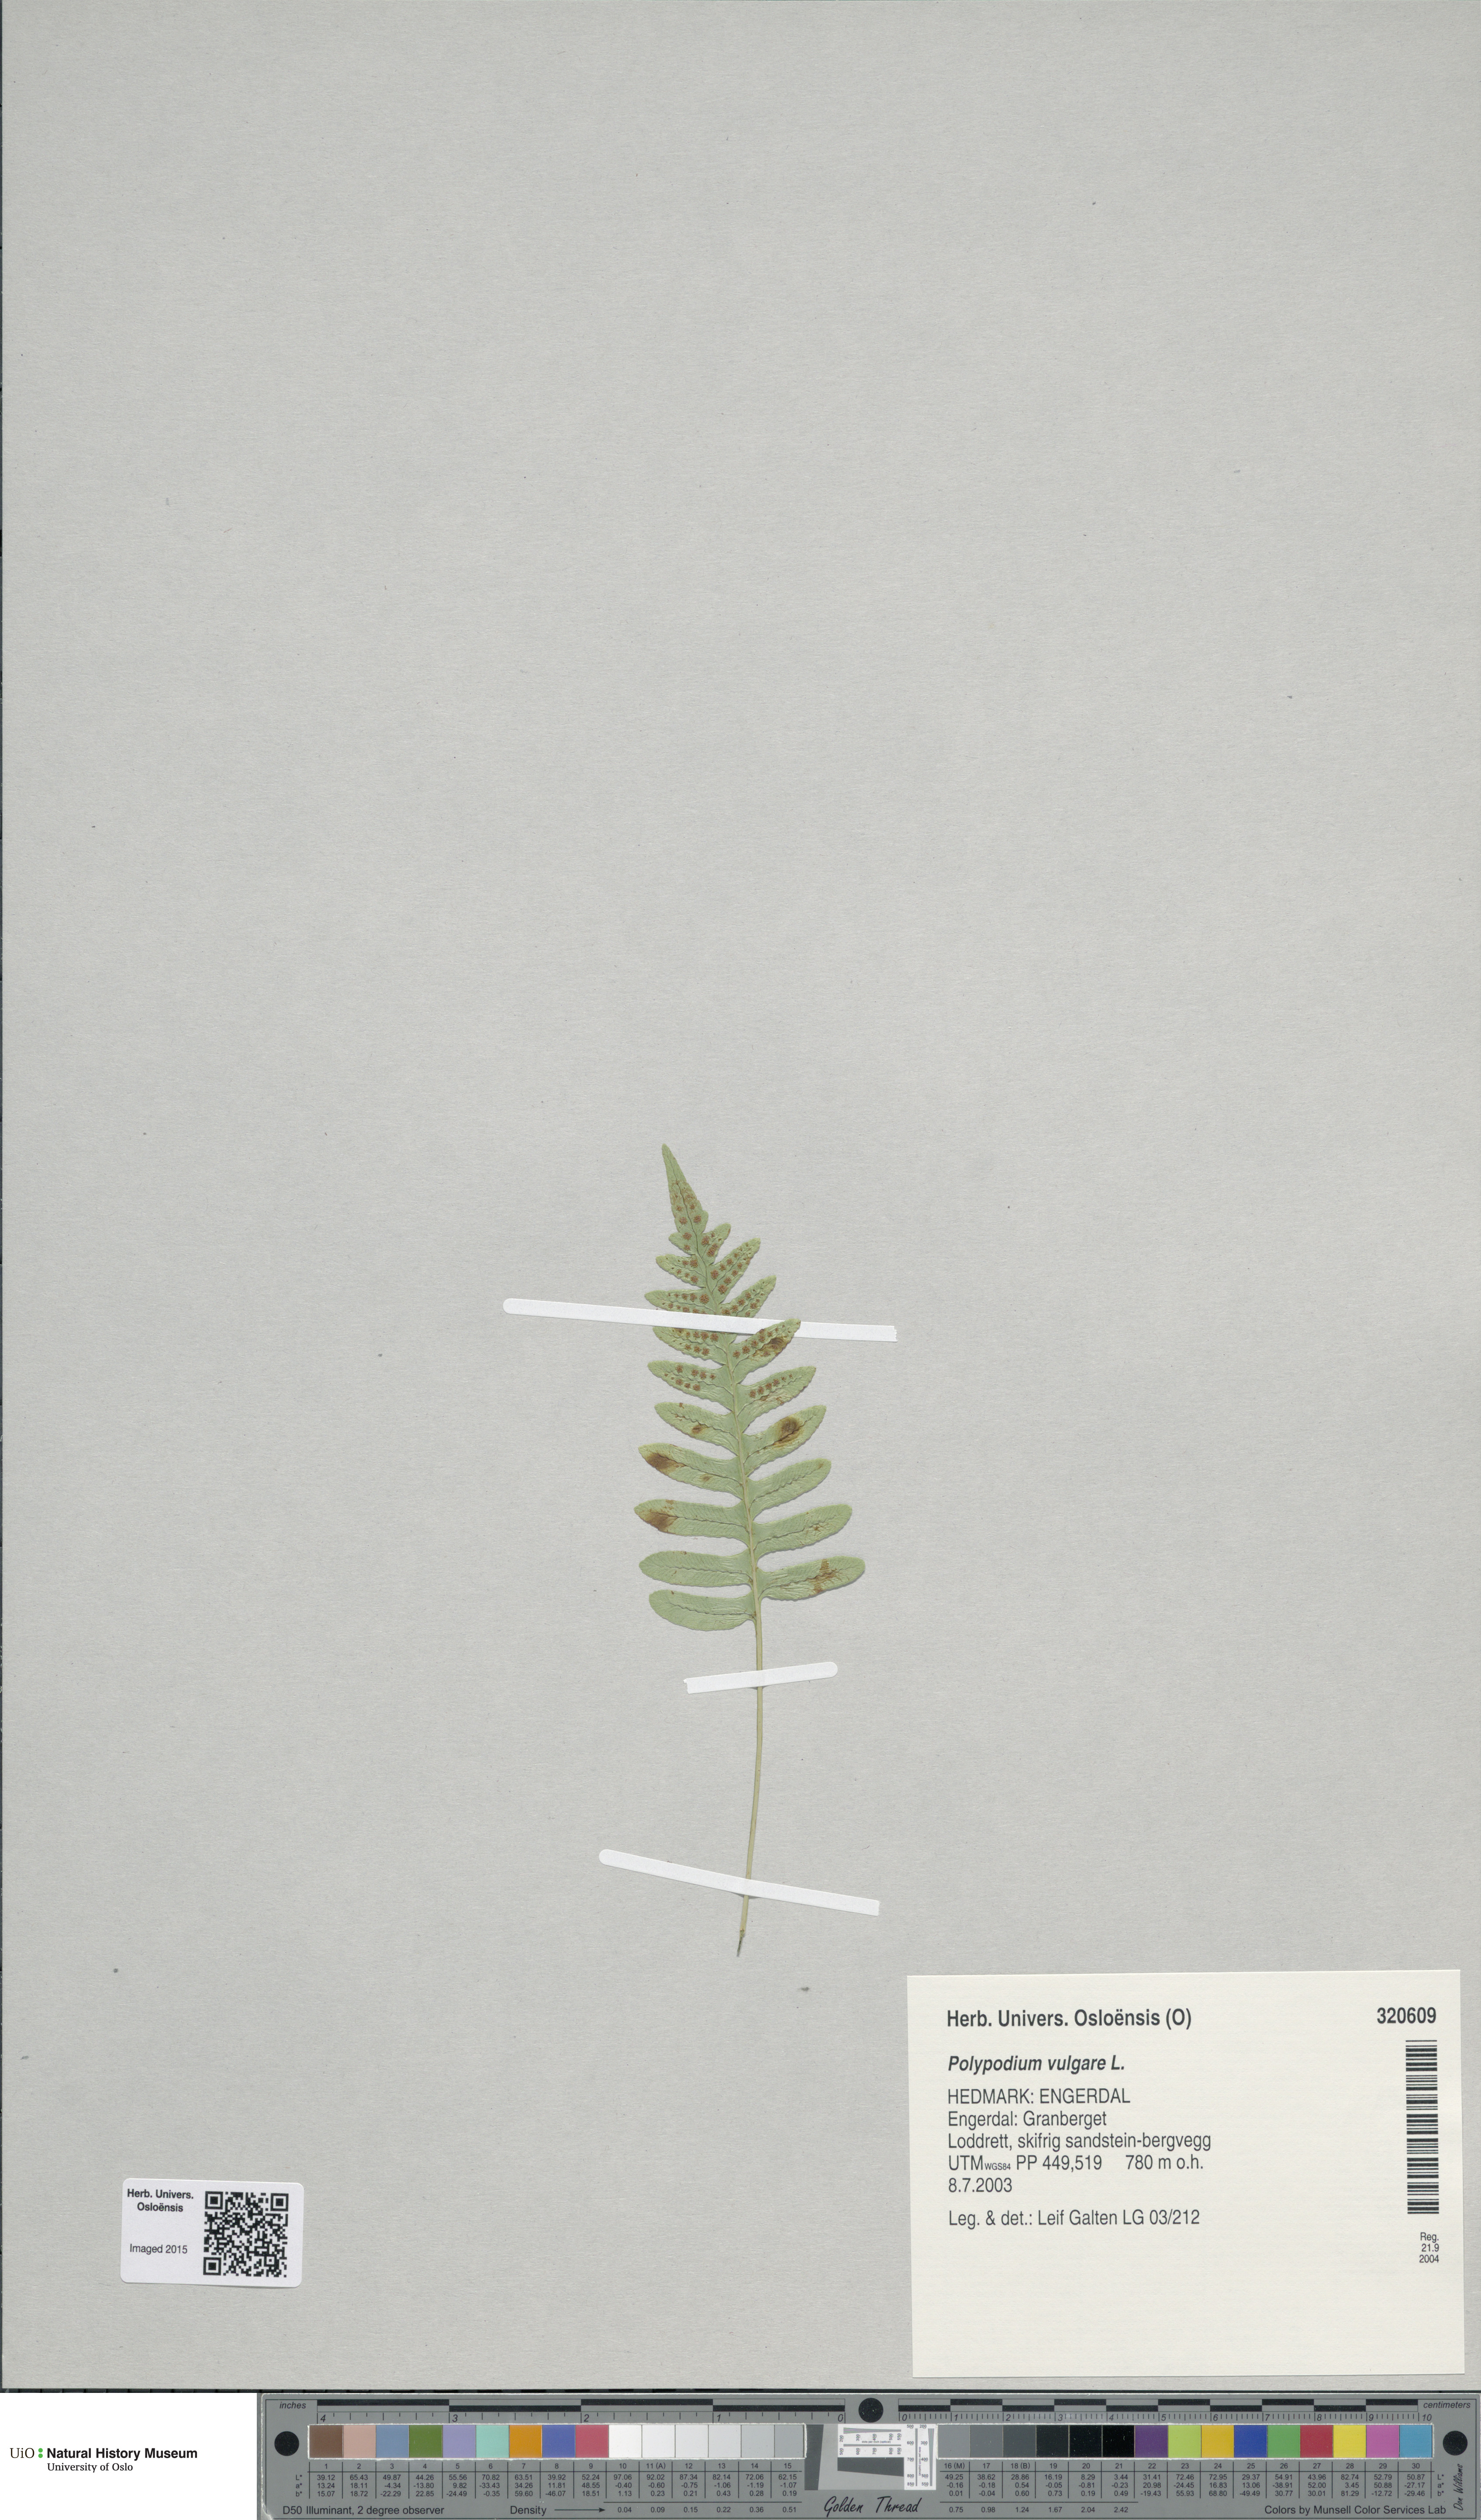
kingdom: Plantae
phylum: Tracheophyta
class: Polypodiopsida
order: Polypodiales
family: Polypodiaceae
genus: Polypodium
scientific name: Polypodium vulgare
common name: Common polypody
